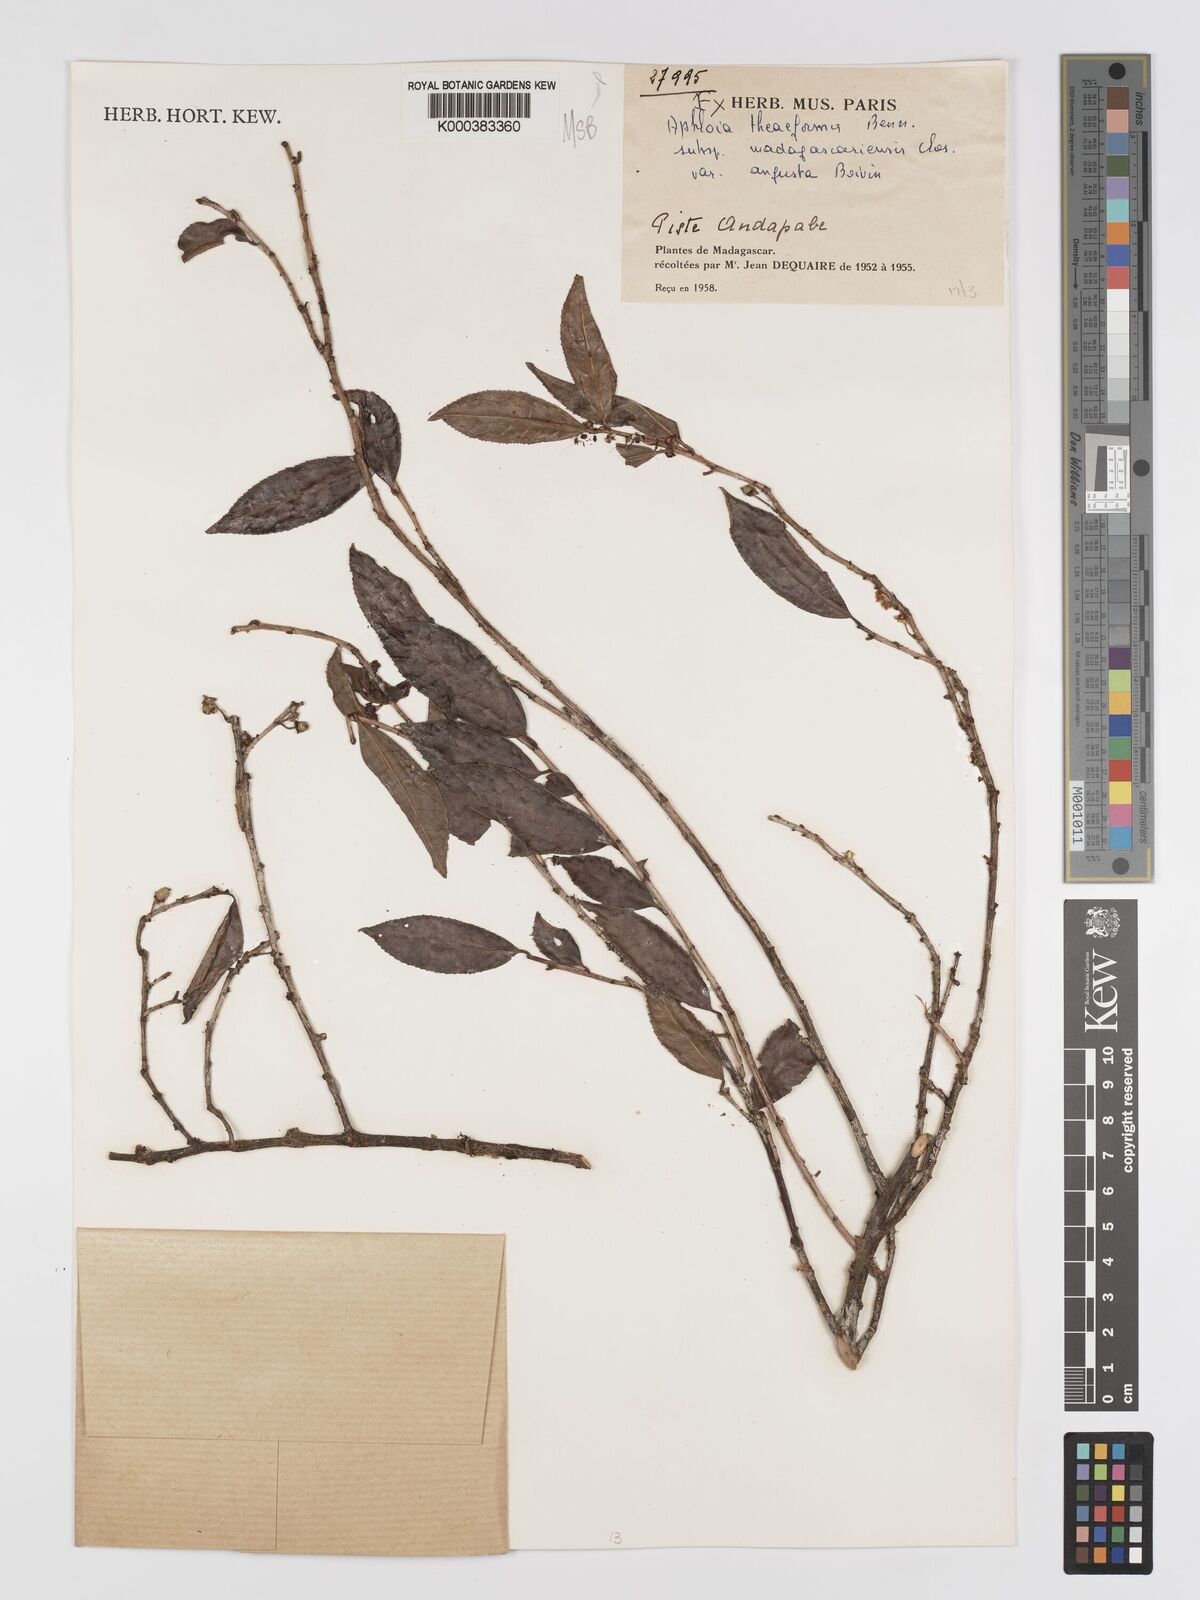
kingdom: Plantae
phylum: Tracheophyta
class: Magnoliopsida
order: Crossosomatales
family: Aphloiaceae
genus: Aphloia
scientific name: Aphloia theiformis
